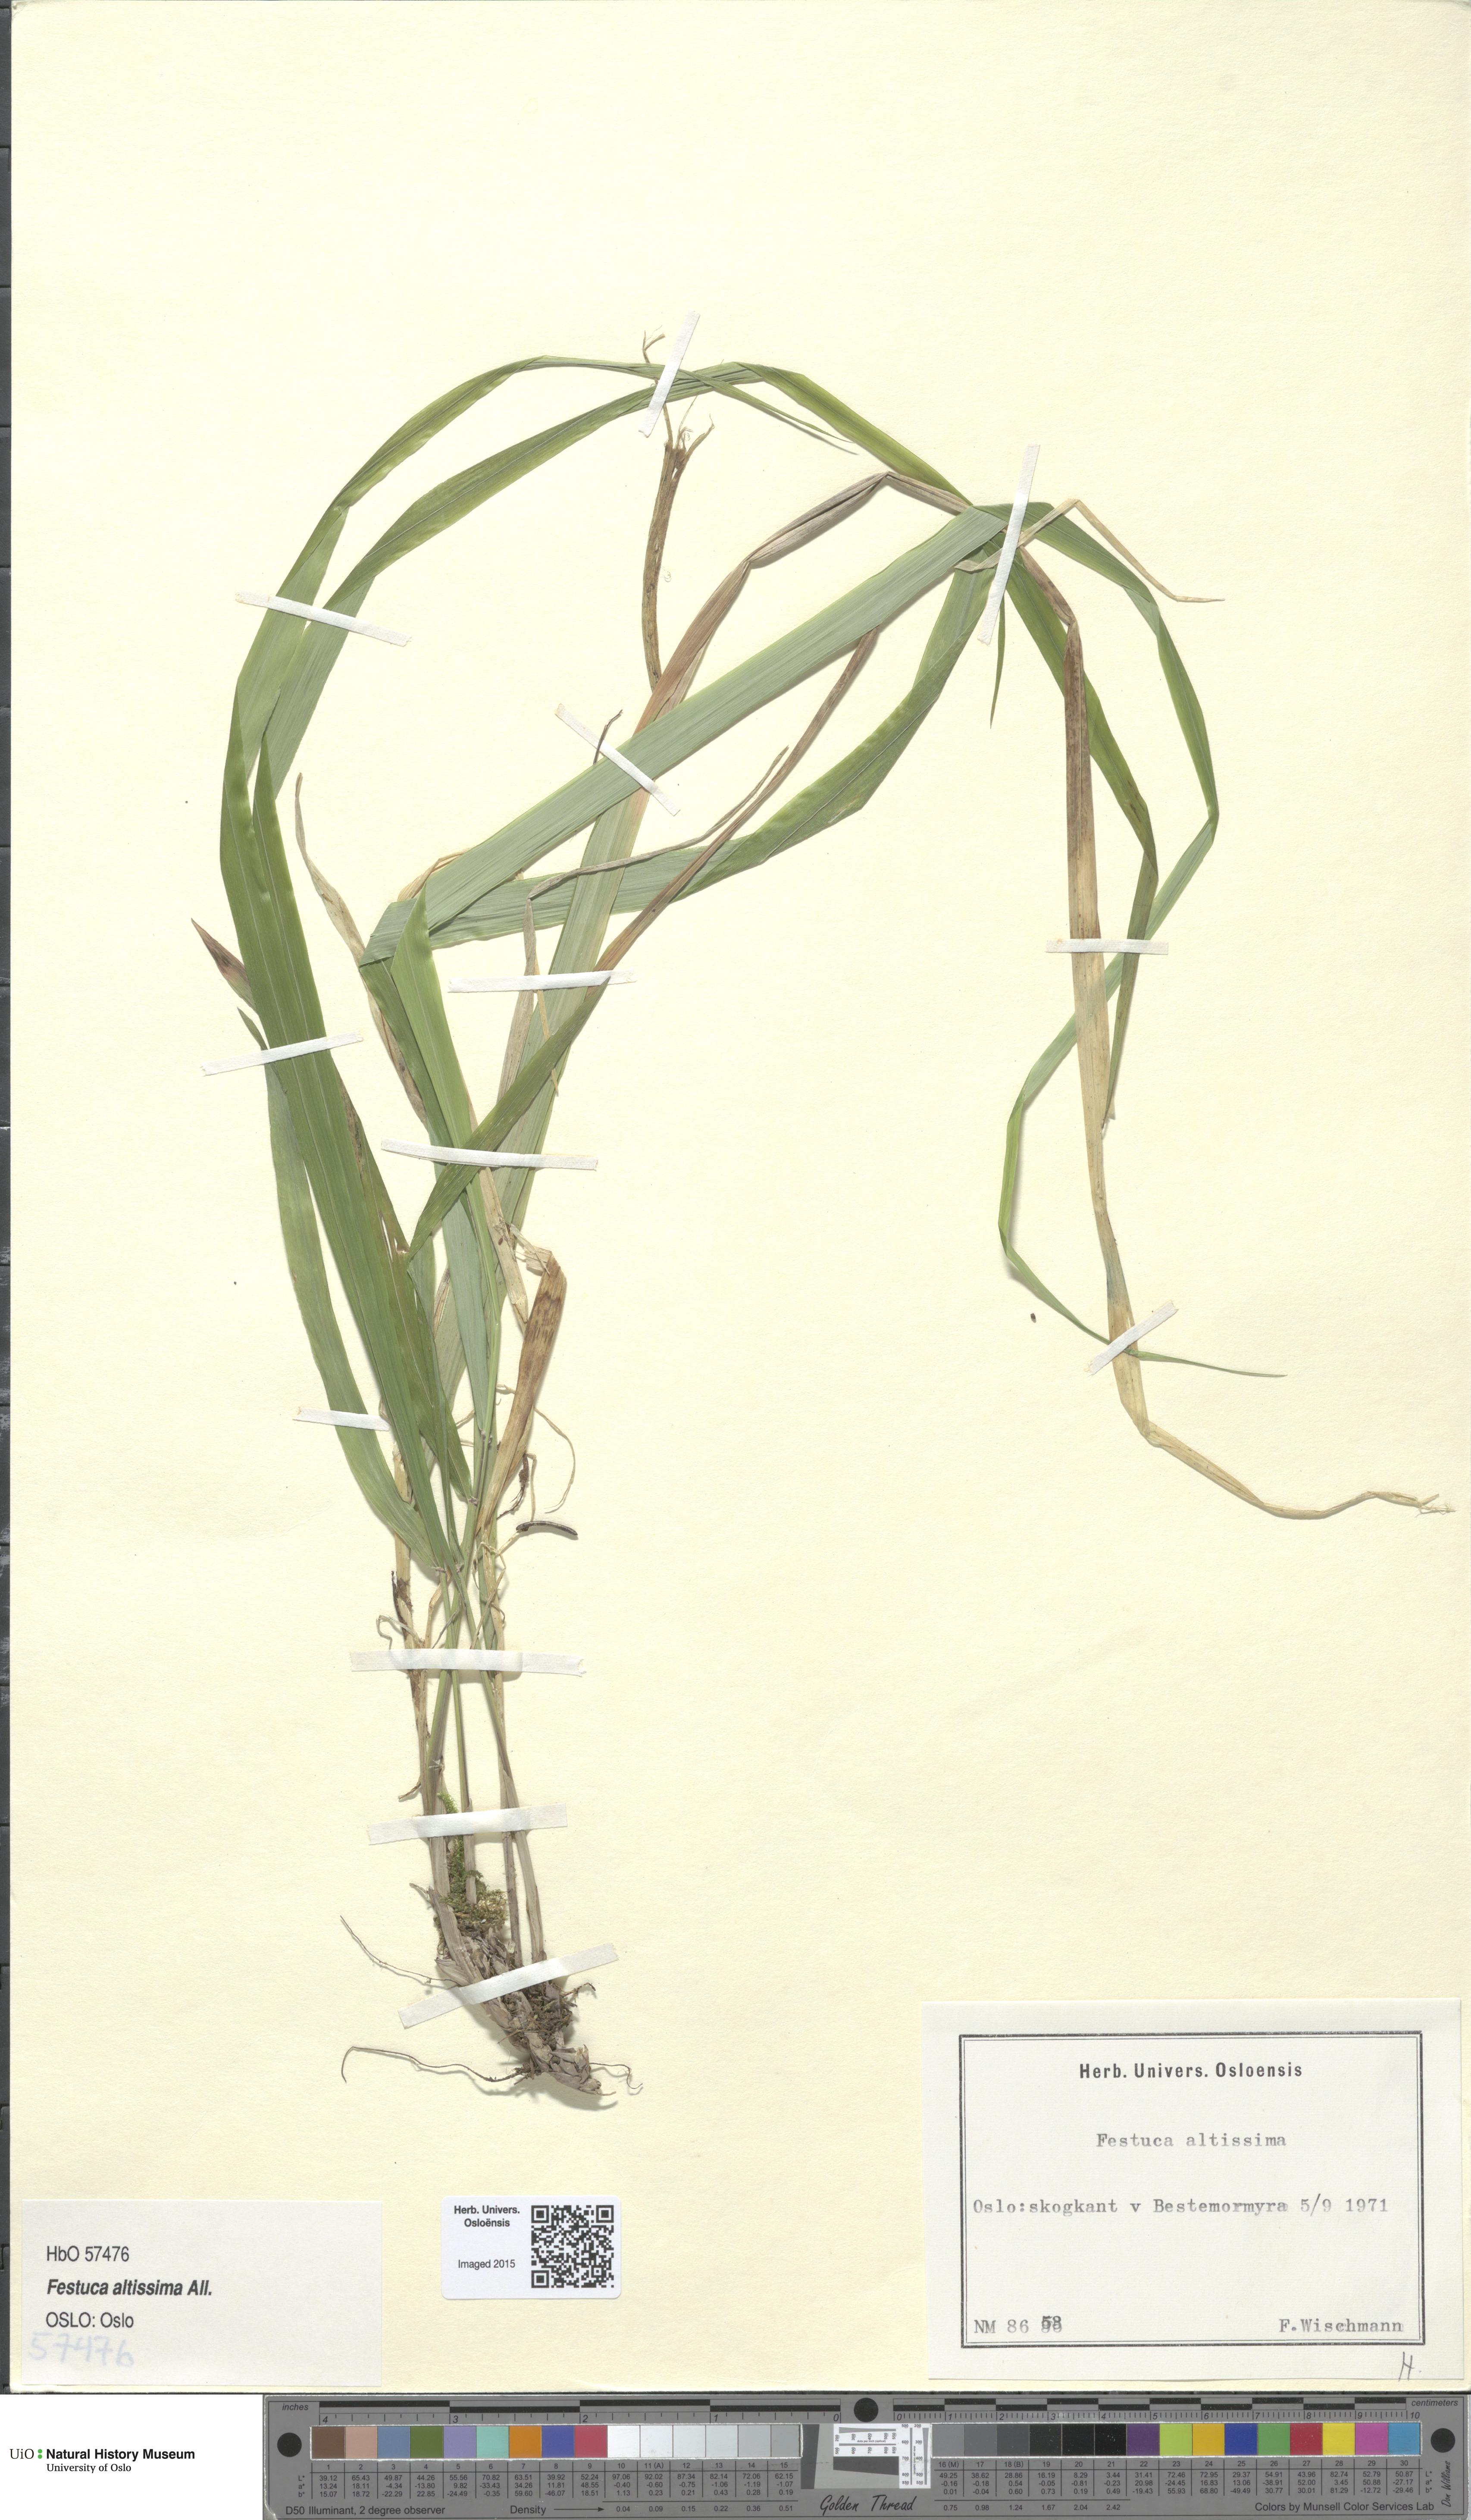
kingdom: Plantae
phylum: Tracheophyta
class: Liliopsida
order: Poales
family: Poaceae
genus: Festuca
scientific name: Festuca altissima
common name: Wood fescue
